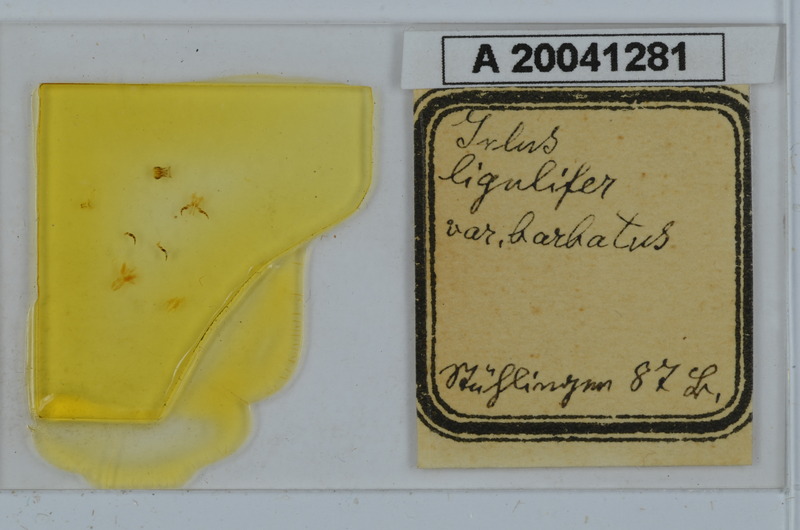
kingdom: Animalia
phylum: Arthropoda
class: Diplopoda
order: Julida
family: Julidae
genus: Julus
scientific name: Julus scandinavius
